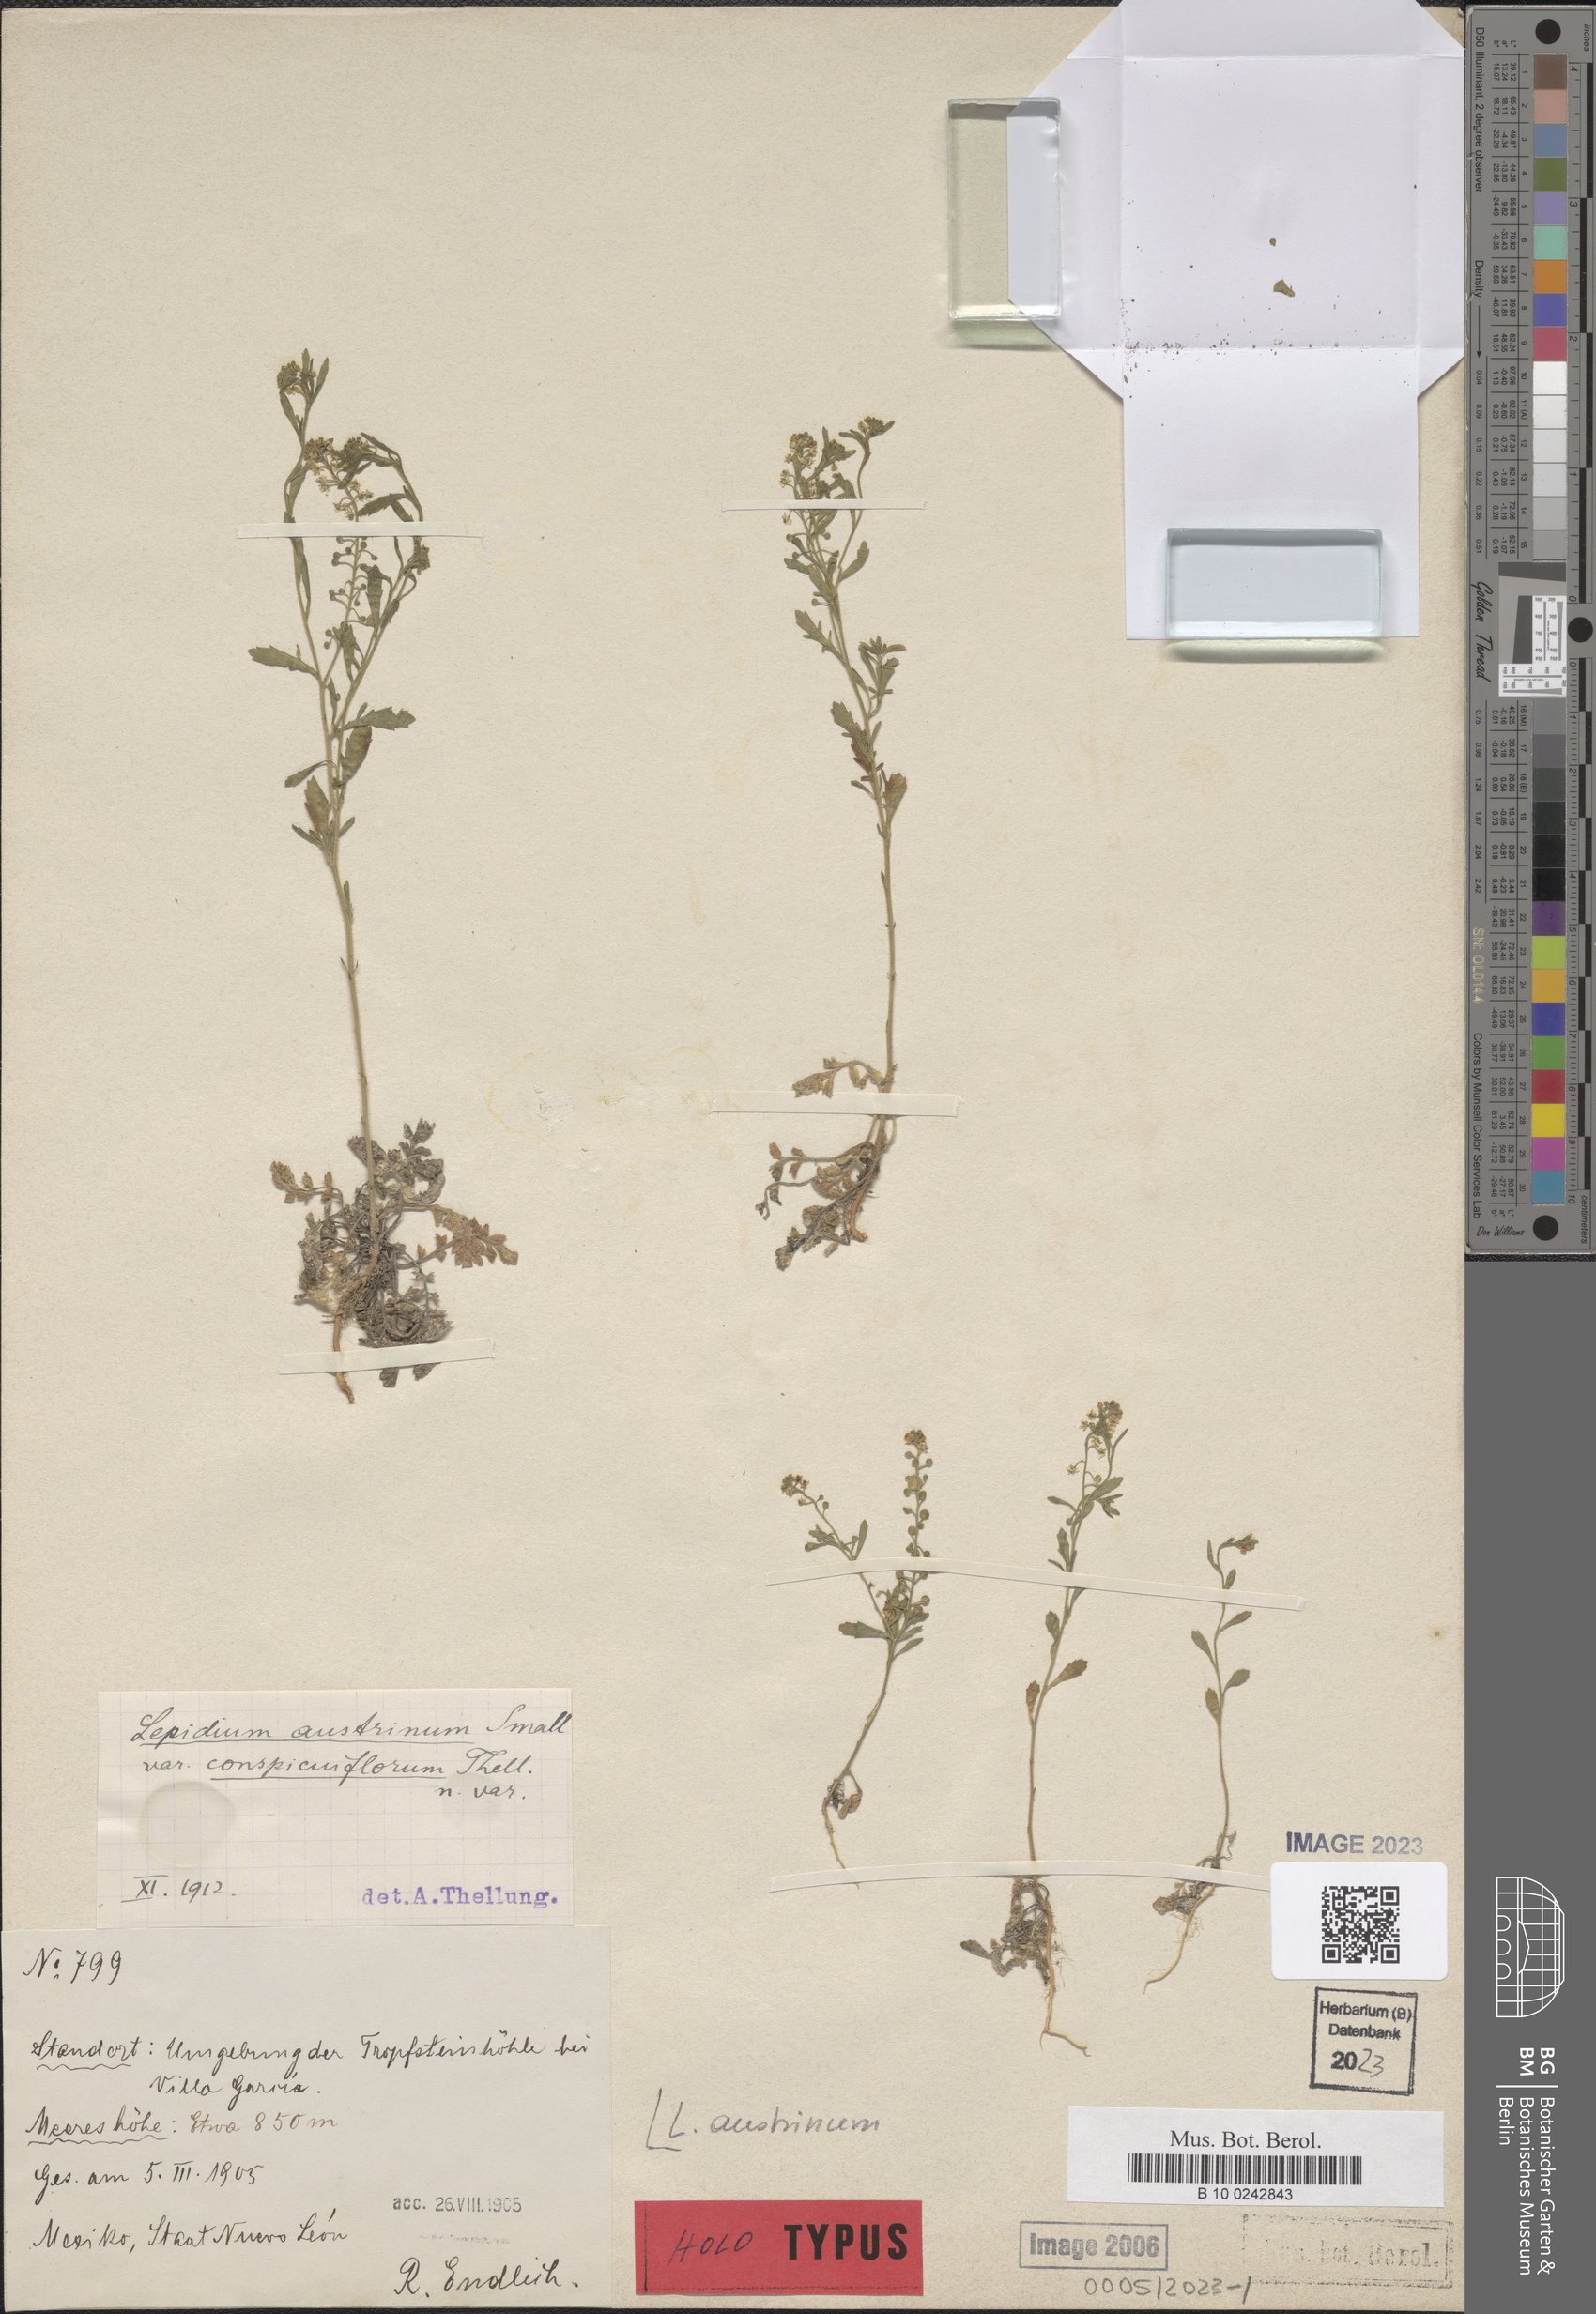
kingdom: Plantae
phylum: Tracheophyta
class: Magnoliopsida
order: Brassicales
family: Brassicaceae
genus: Lepidium
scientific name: Lepidium austrinum
